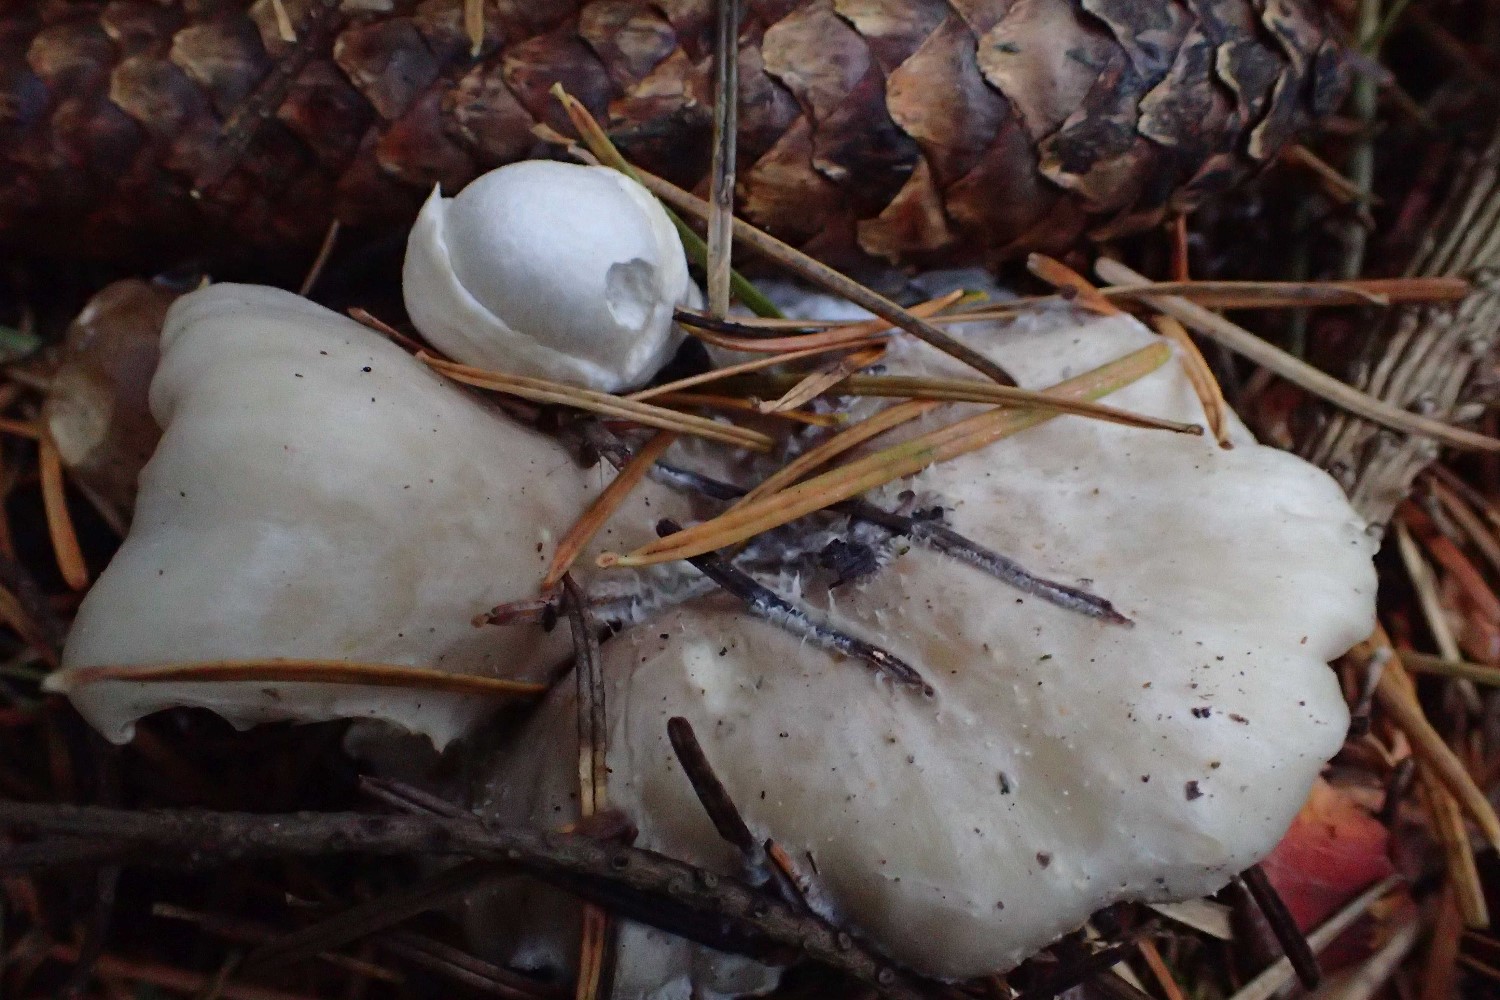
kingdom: Fungi
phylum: Basidiomycota
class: Agaricomycetes
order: Agaricales
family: Pluteaceae
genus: Volvariella
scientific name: Volvariella surrecta
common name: snyltende posesvamp
